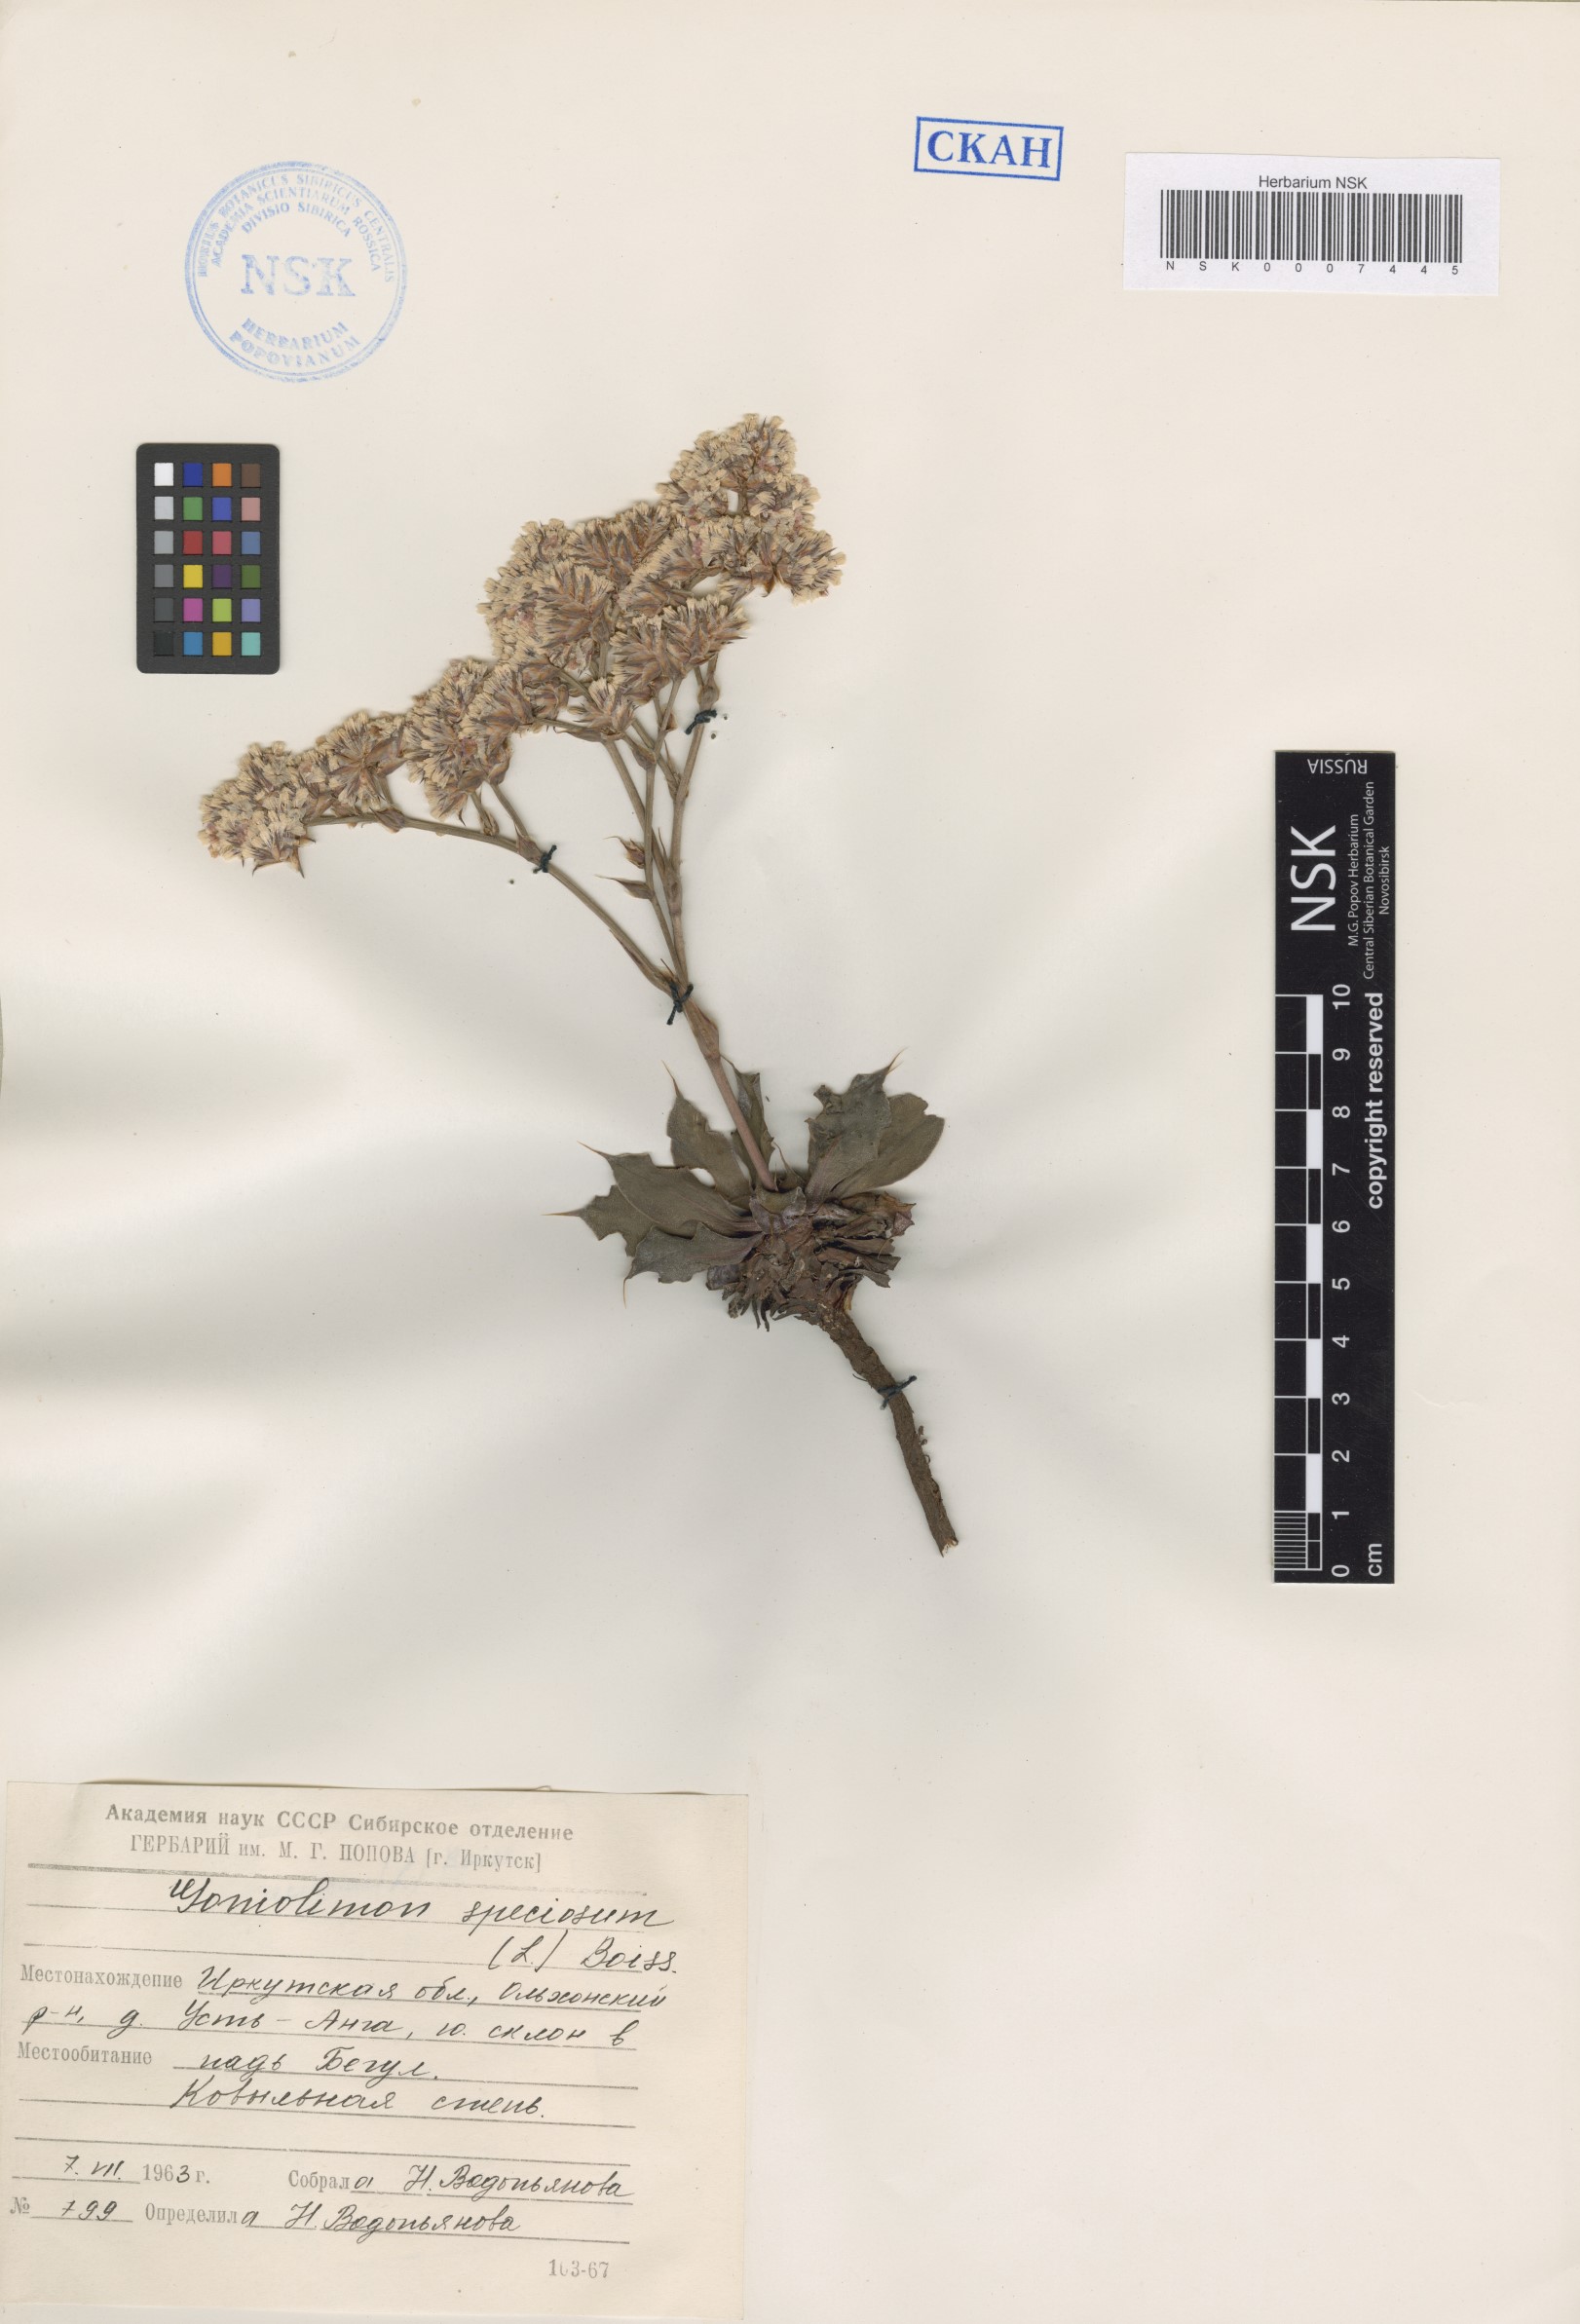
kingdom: Plantae
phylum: Tracheophyta
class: Magnoliopsida
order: Caryophyllales
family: Plumbaginaceae
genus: Goniolimon
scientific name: Goniolimon speciosum
